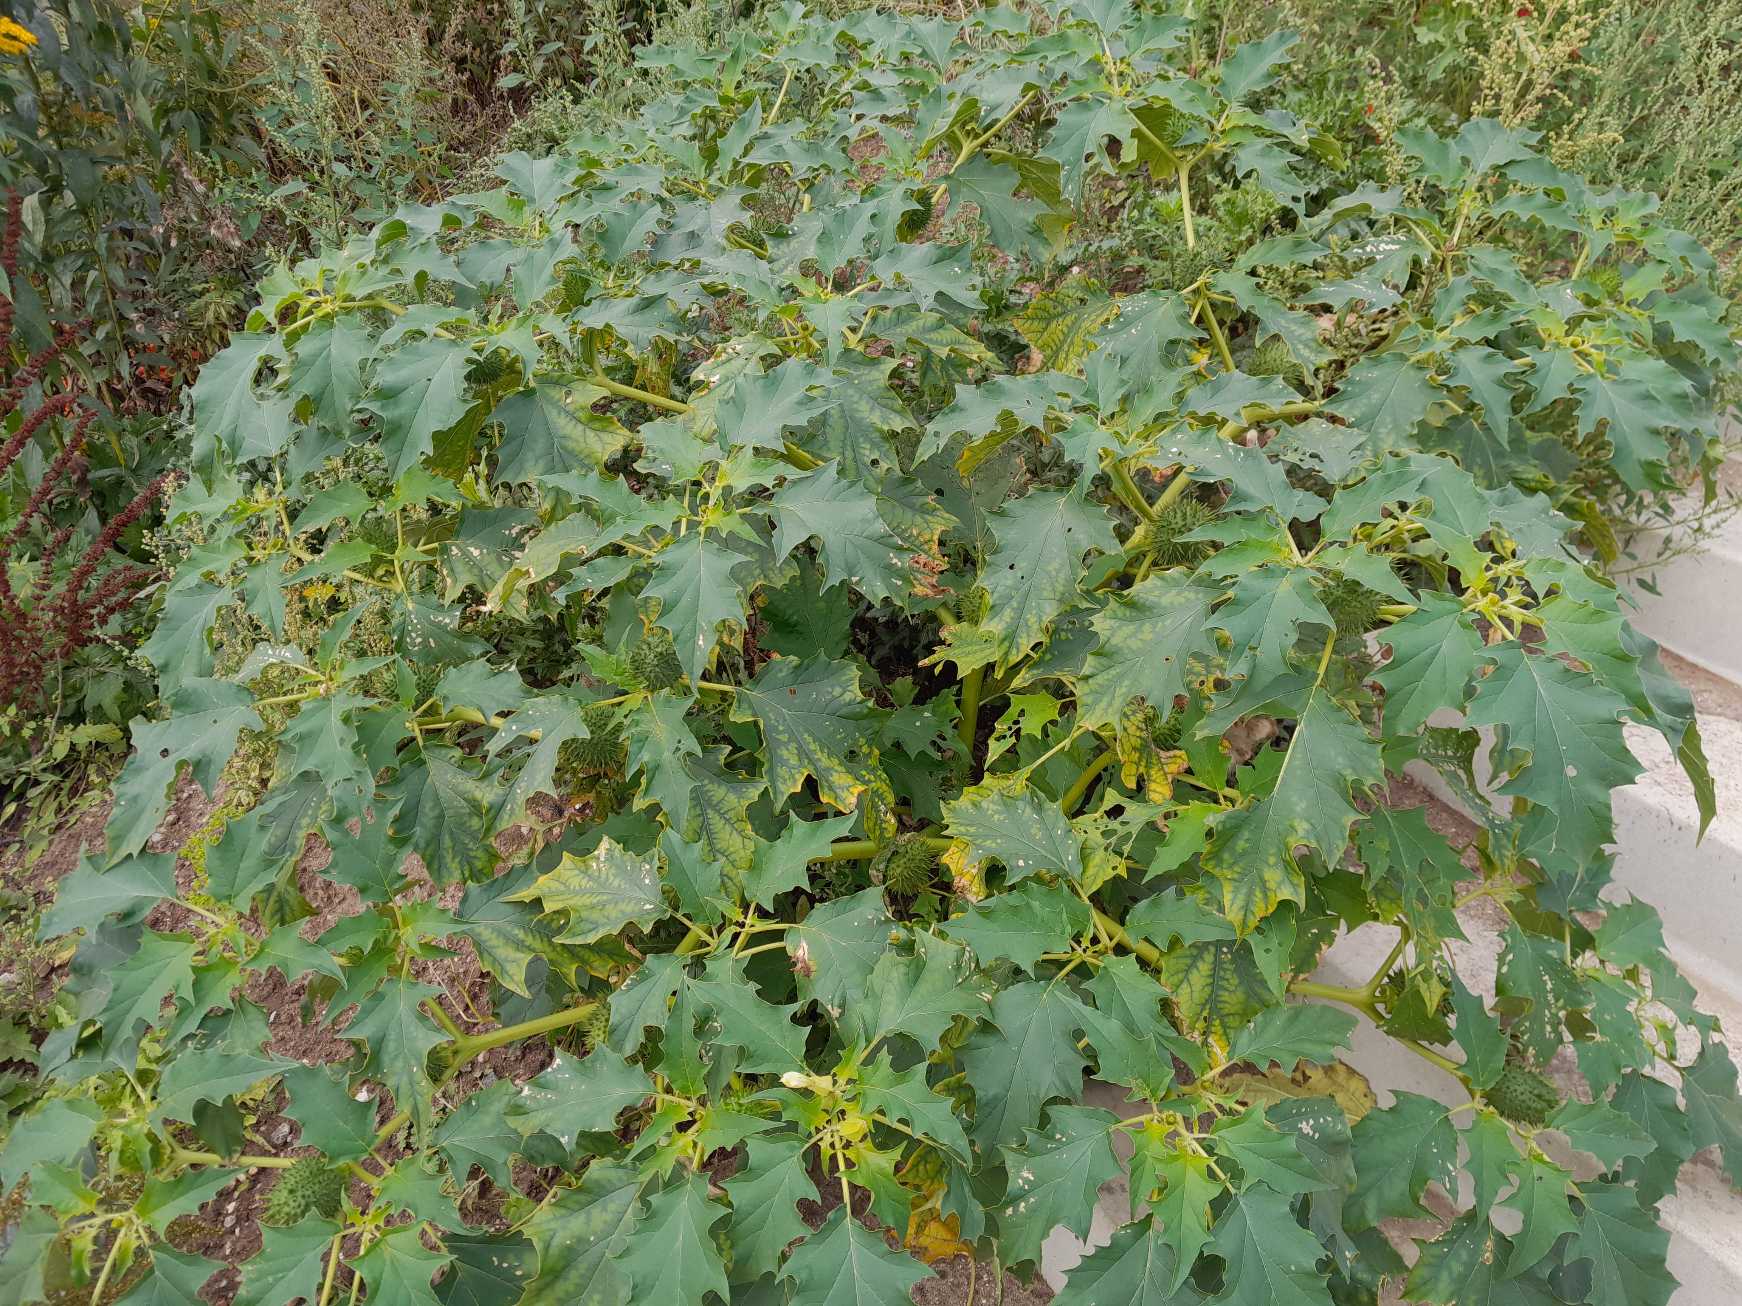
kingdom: Plantae
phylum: Tracheophyta
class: Magnoliopsida
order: Solanales
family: Solanaceae
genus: Datura
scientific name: Datura stramonium
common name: Pigæble
